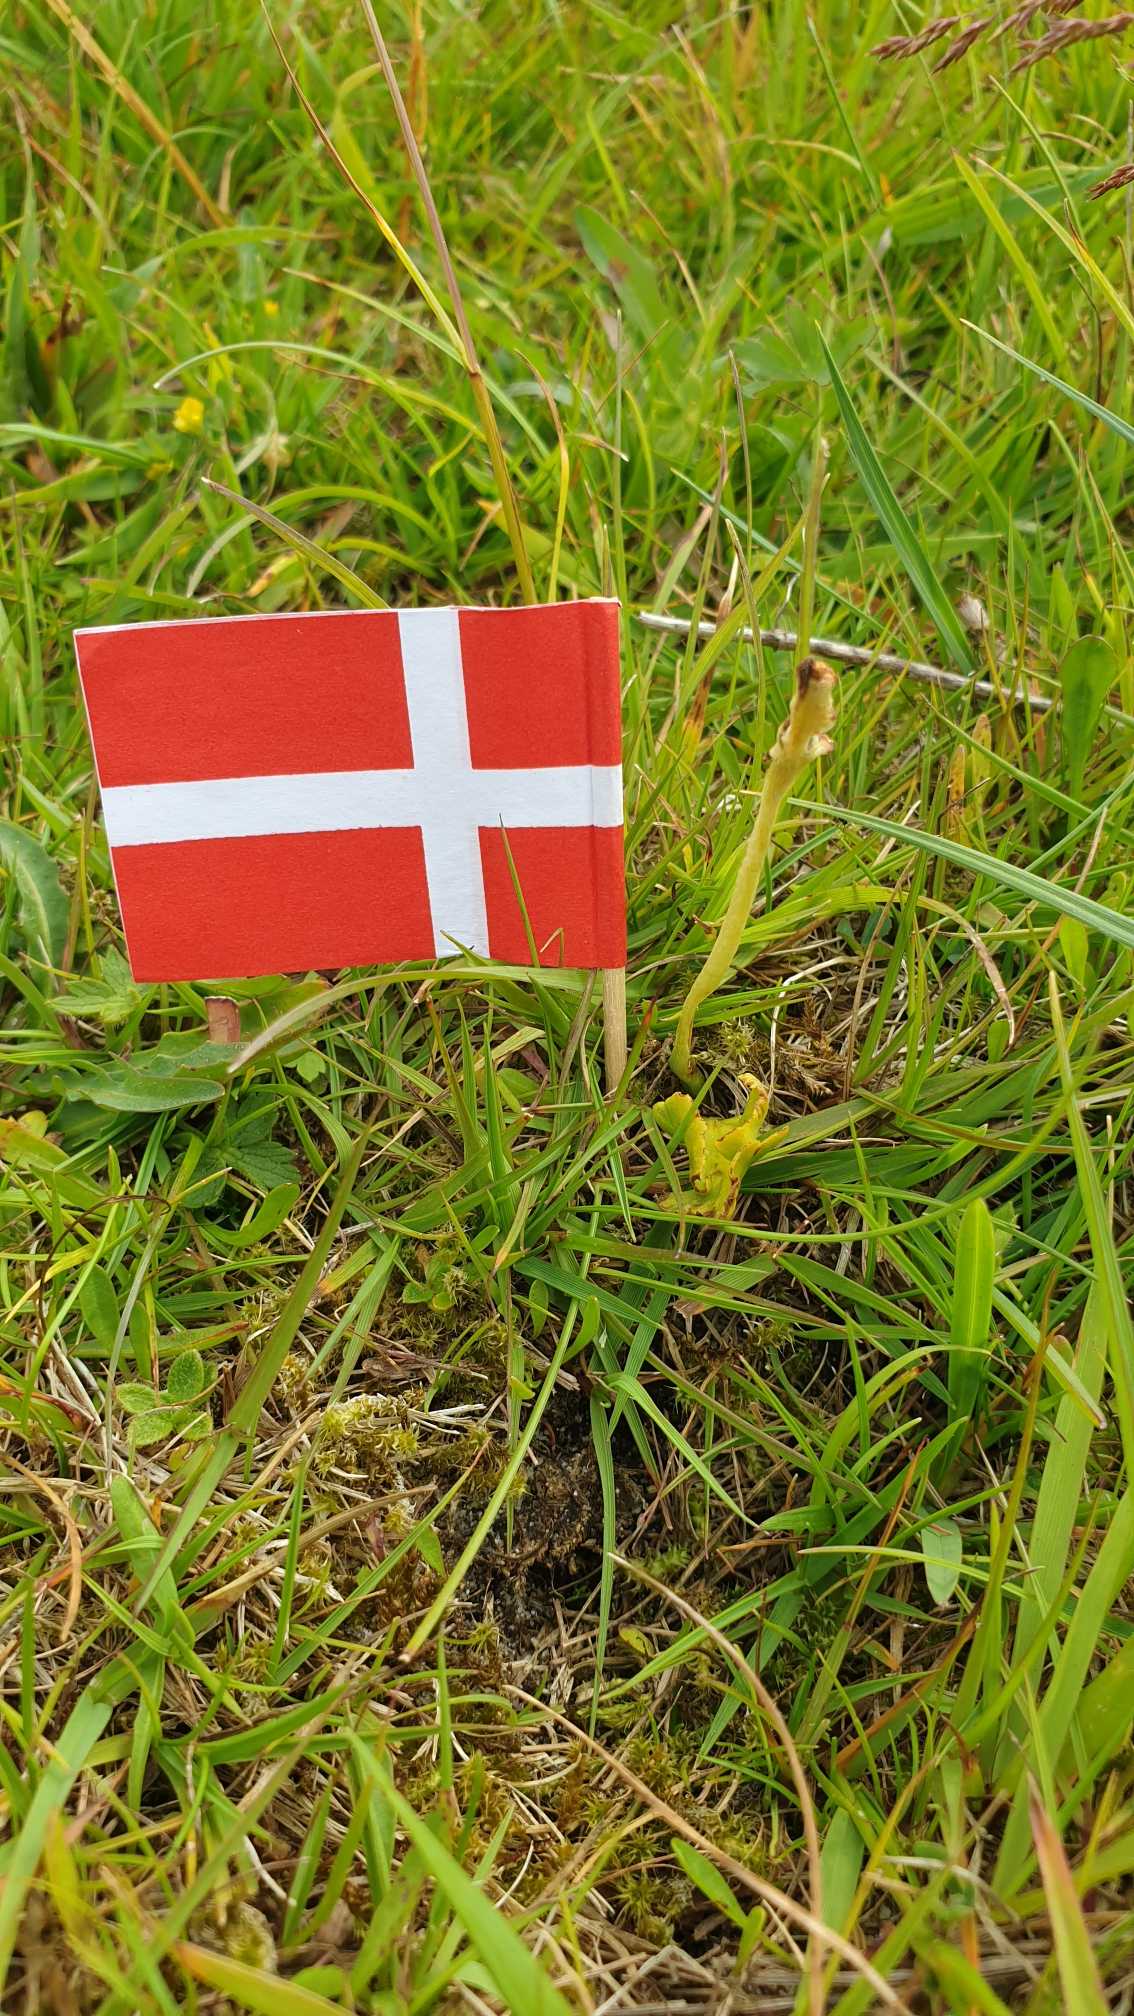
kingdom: Plantae
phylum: Tracheophyta
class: Polypodiopsida
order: Ophioglossales
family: Ophioglossaceae
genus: Botrychium
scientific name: Botrychium simplex
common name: Enkelt månerude
